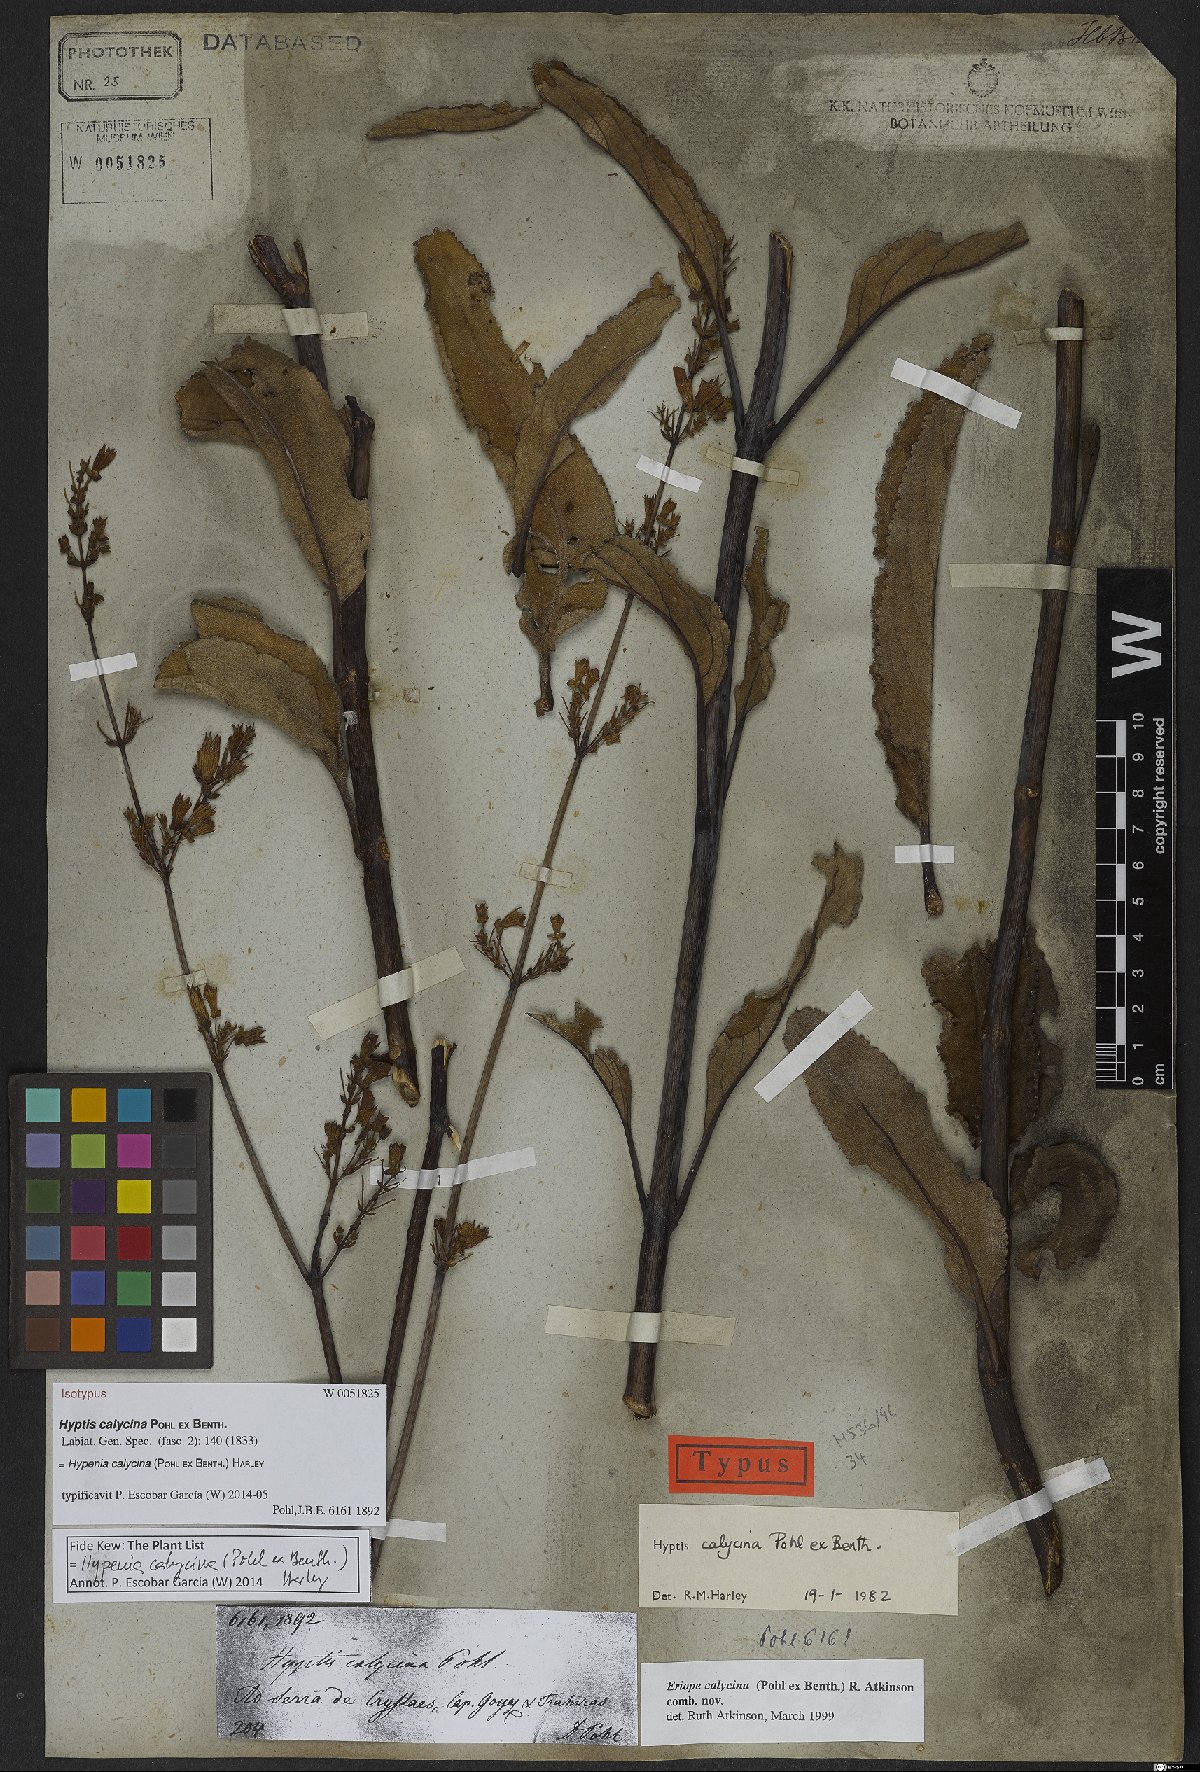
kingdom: Plantae
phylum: Tracheophyta
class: Magnoliopsida
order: Lamiales
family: Lamiaceae
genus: Hypenia
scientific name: Hypenia calycina
